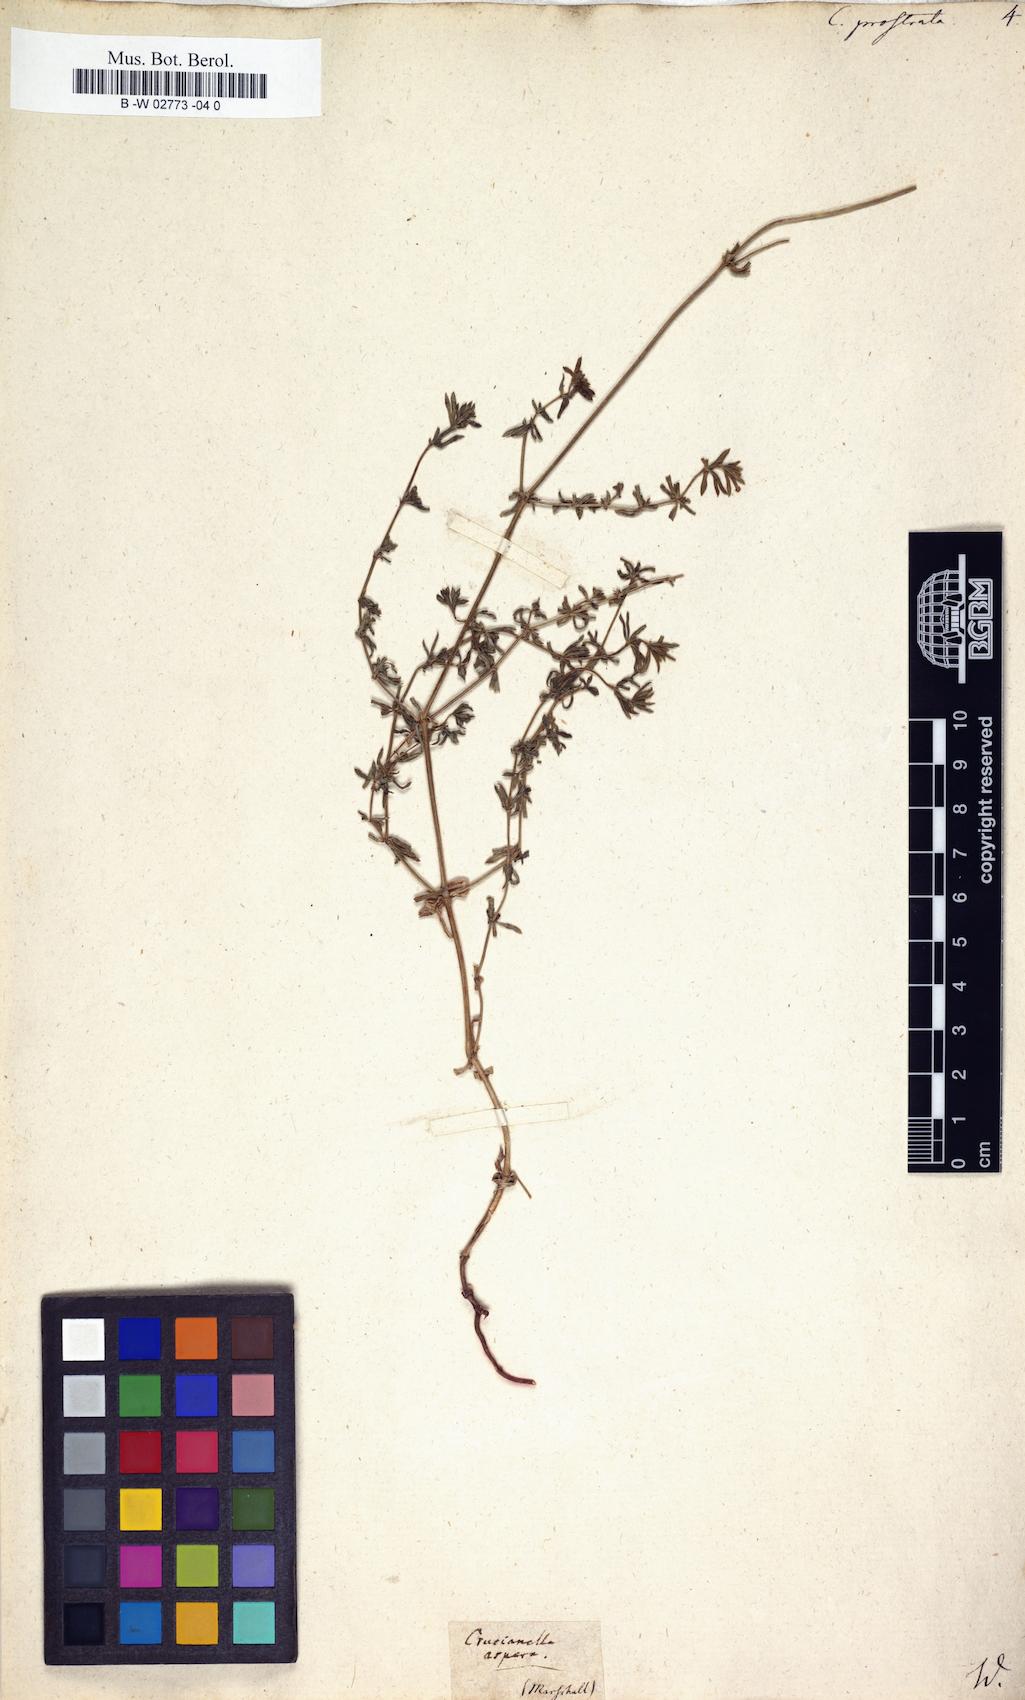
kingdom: Plantae
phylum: Tracheophyta
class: Magnoliopsida
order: Gentianales
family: Rubiaceae
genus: Asperula
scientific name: Asperula prostrata
